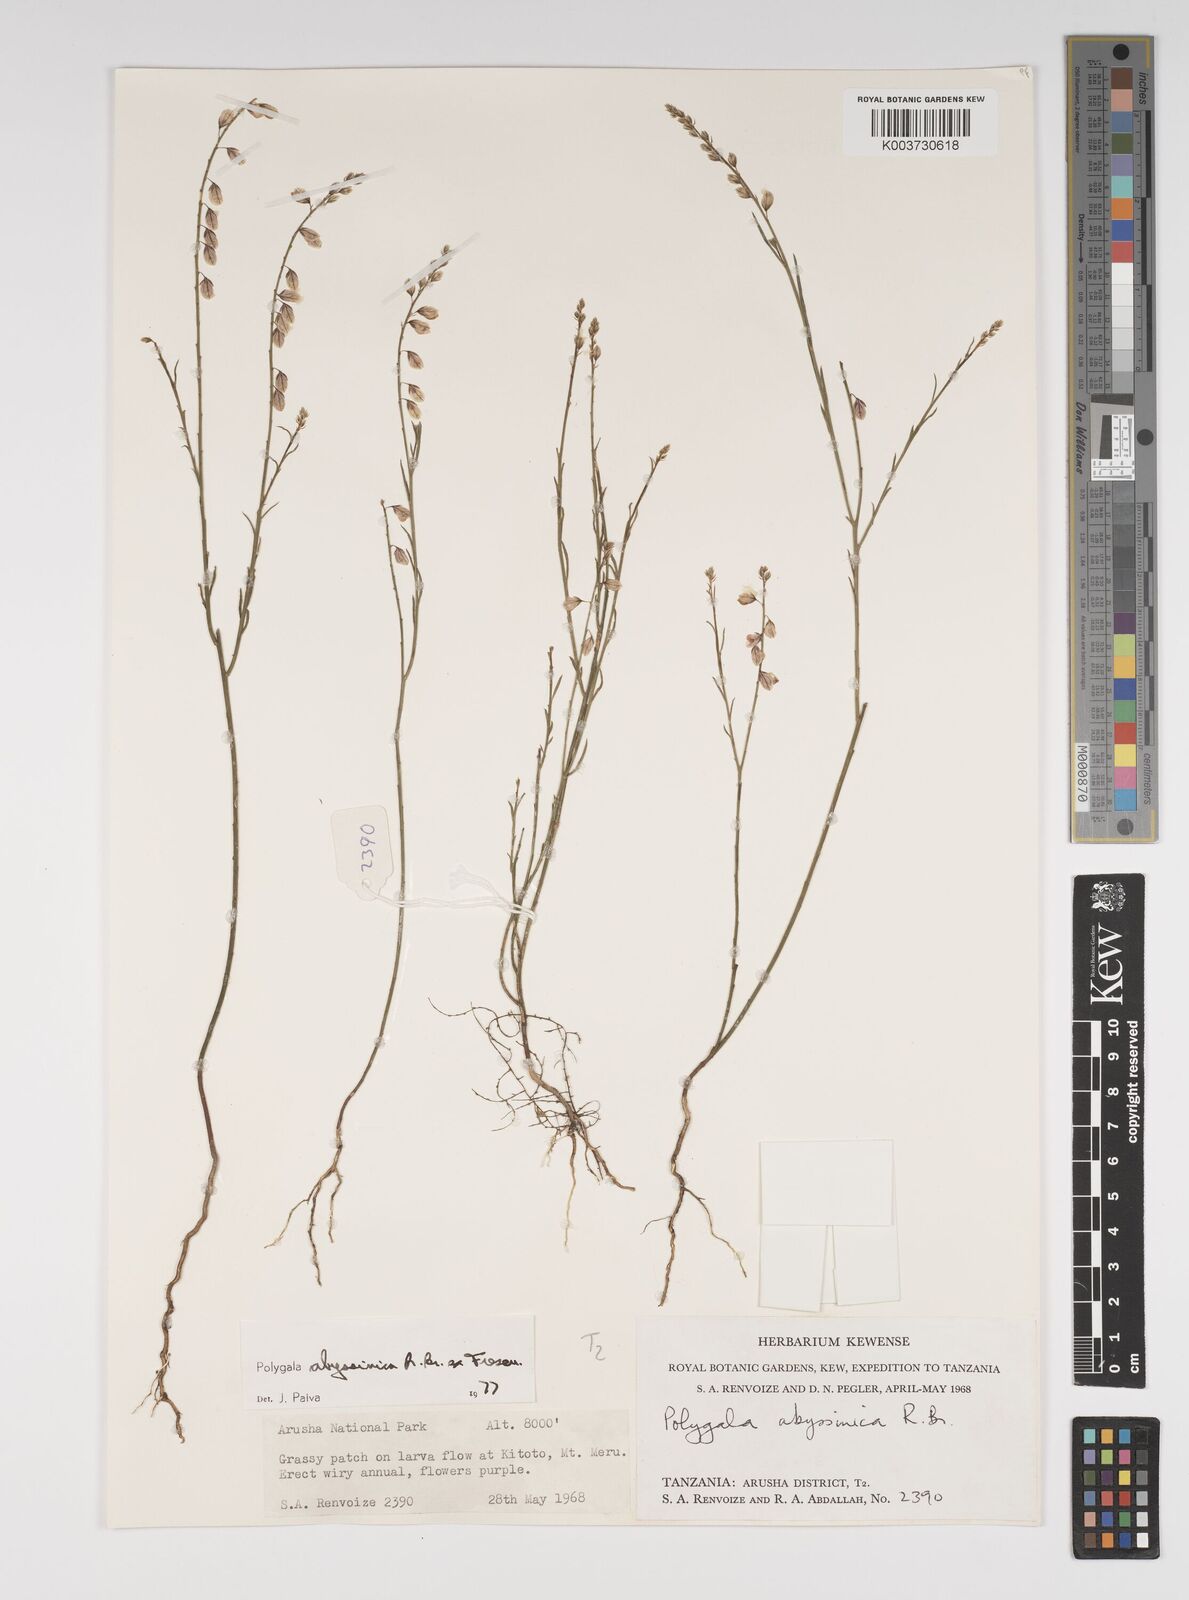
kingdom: Plantae
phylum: Tracheophyta
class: Magnoliopsida
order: Fabales
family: Polygalaceae
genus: Polygala
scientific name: Polygala abyssinica
